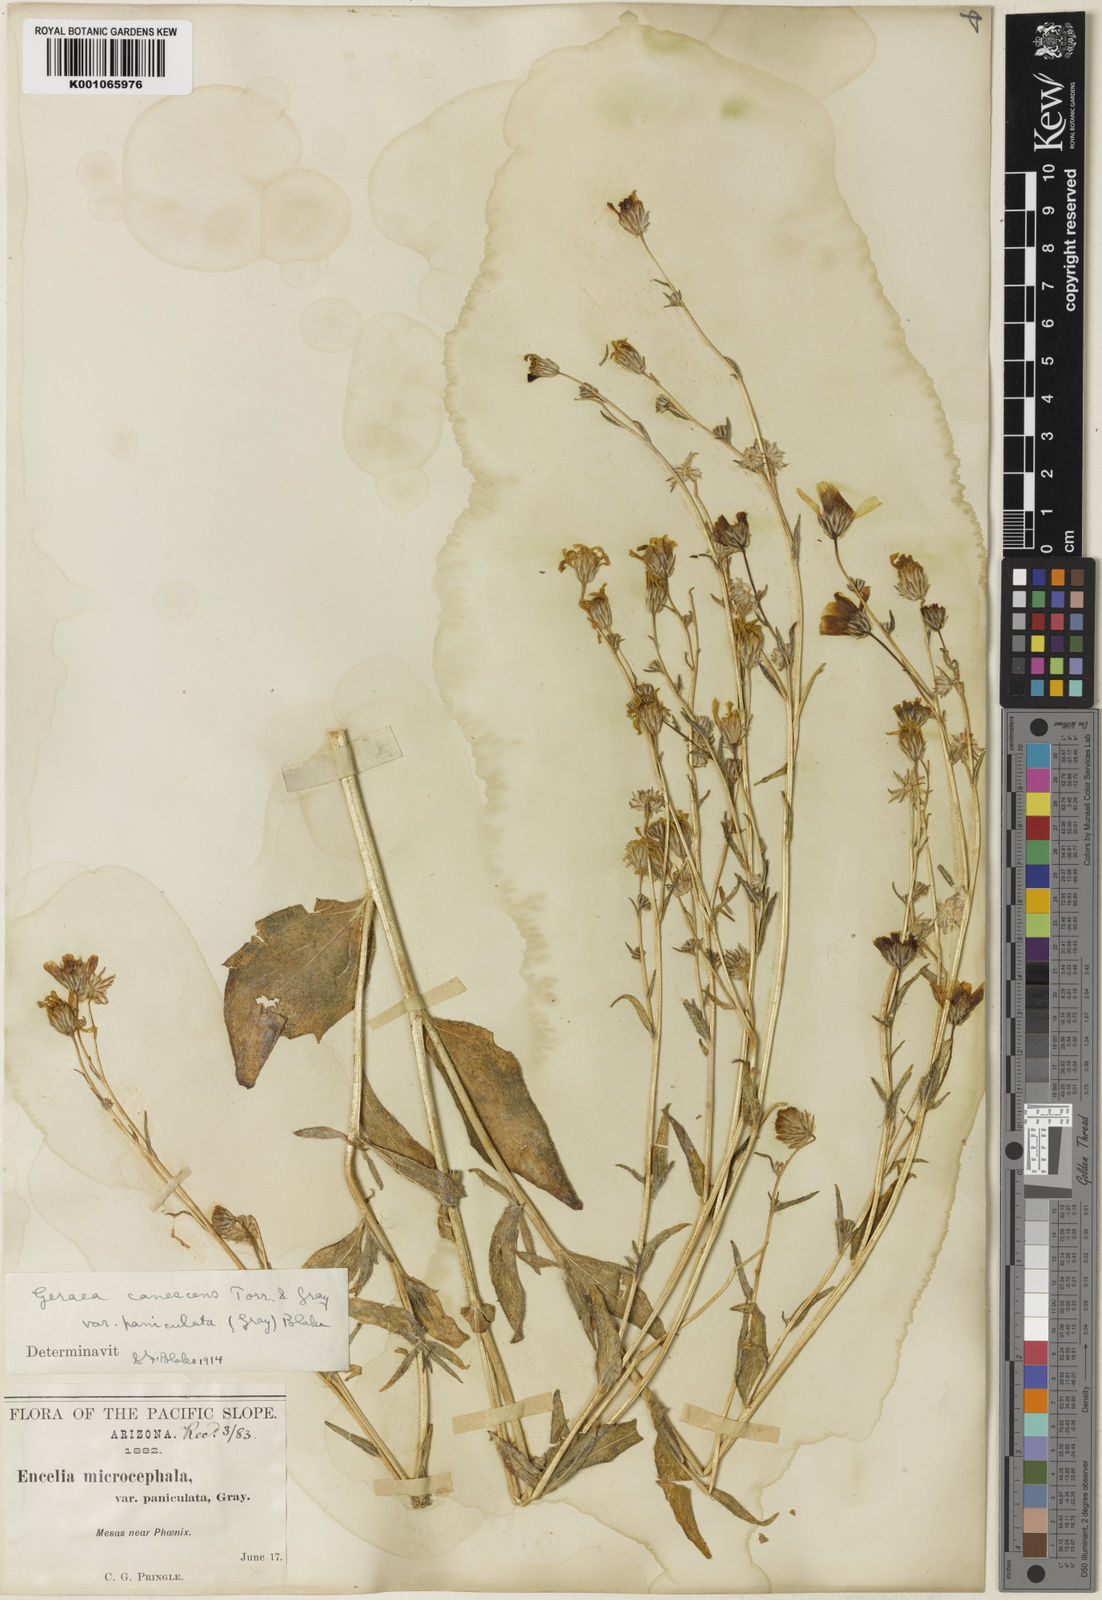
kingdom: Plantae
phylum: Tracheophyta
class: Magnoliopsida
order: Asterales
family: Asteraceae
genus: Geraea
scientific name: Geraea canescens
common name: Desert-gold
